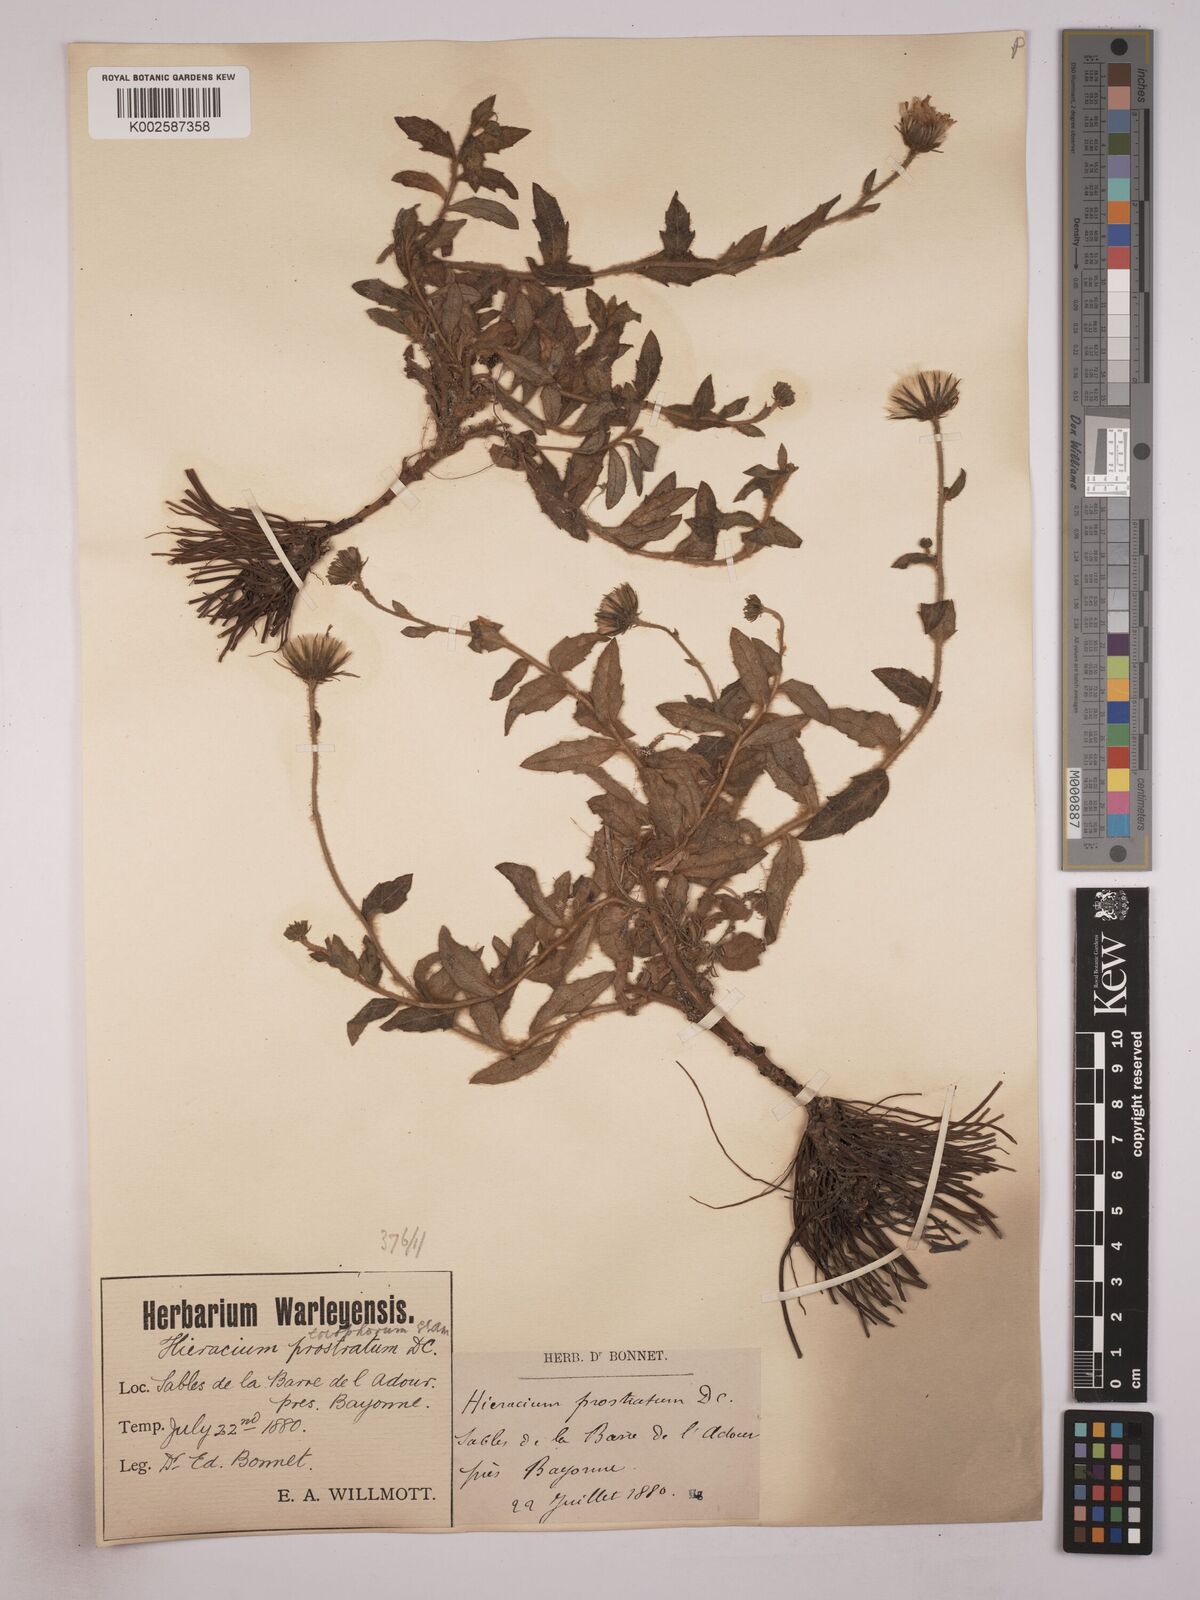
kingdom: Plantae
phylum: Tracheophyta
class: Magnoliopsida
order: Asterales
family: Asteraceae
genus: Hieracium
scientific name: Hieracium prostratum
